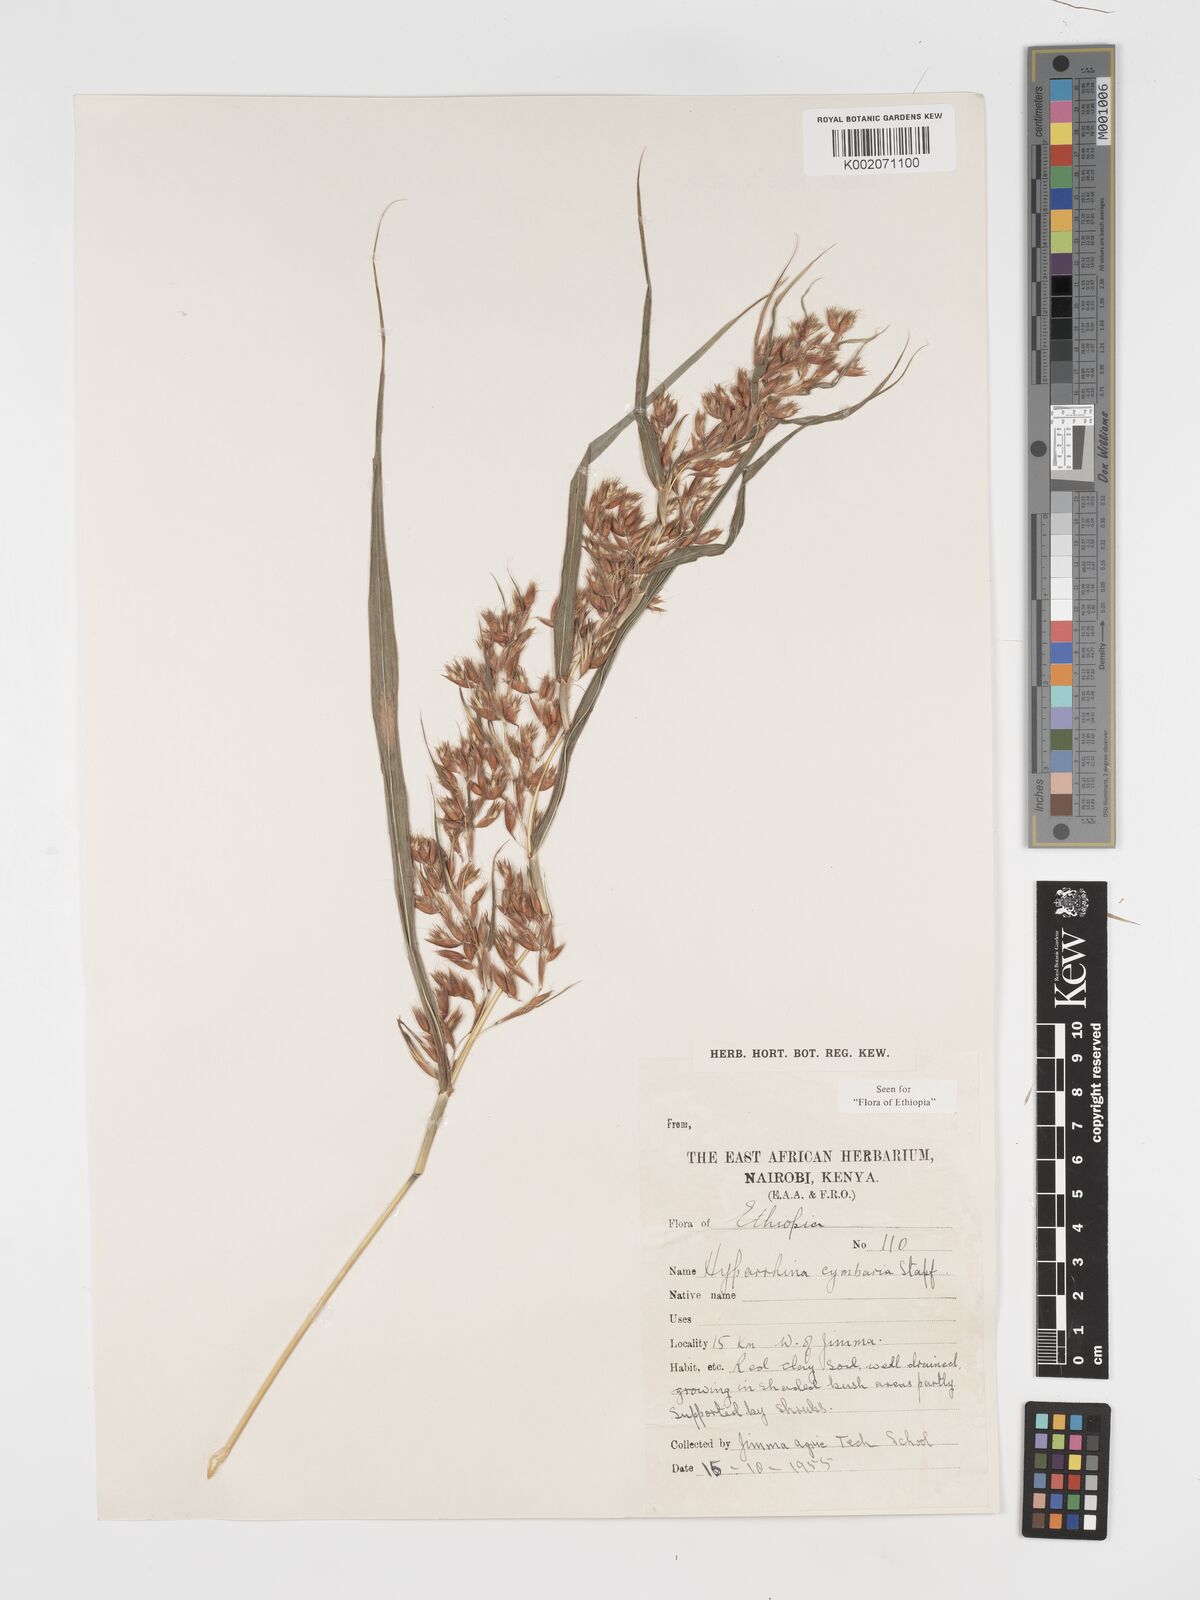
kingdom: Plantae
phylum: Tracheophyta
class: Liliopsida
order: Poales
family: Poaceae
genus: Hyparrhenia
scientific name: Hyparrhenia cymbaria
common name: Boat thatching grass
